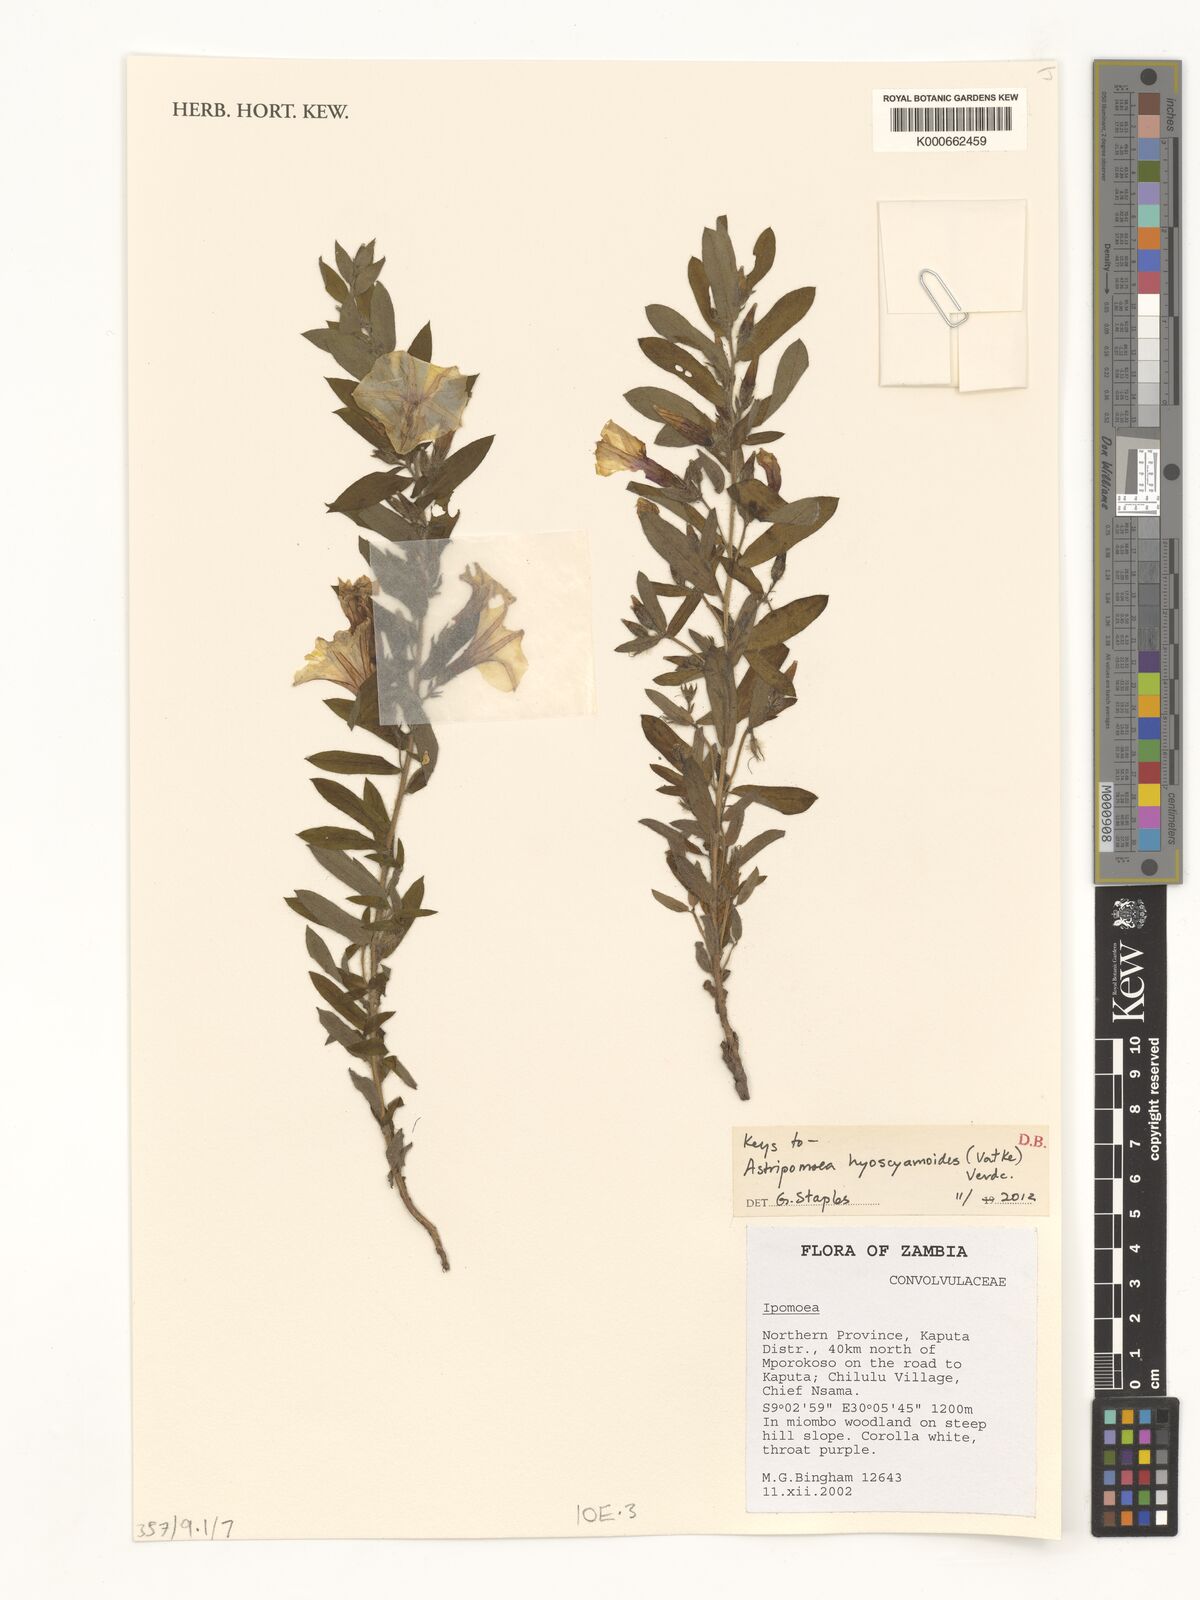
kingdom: Plantae
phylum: Tracheophyta
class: Magnoliopsida
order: Solanales
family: Convolvulaceae
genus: Astripomoea
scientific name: Astripomoea hyoscyamoides
